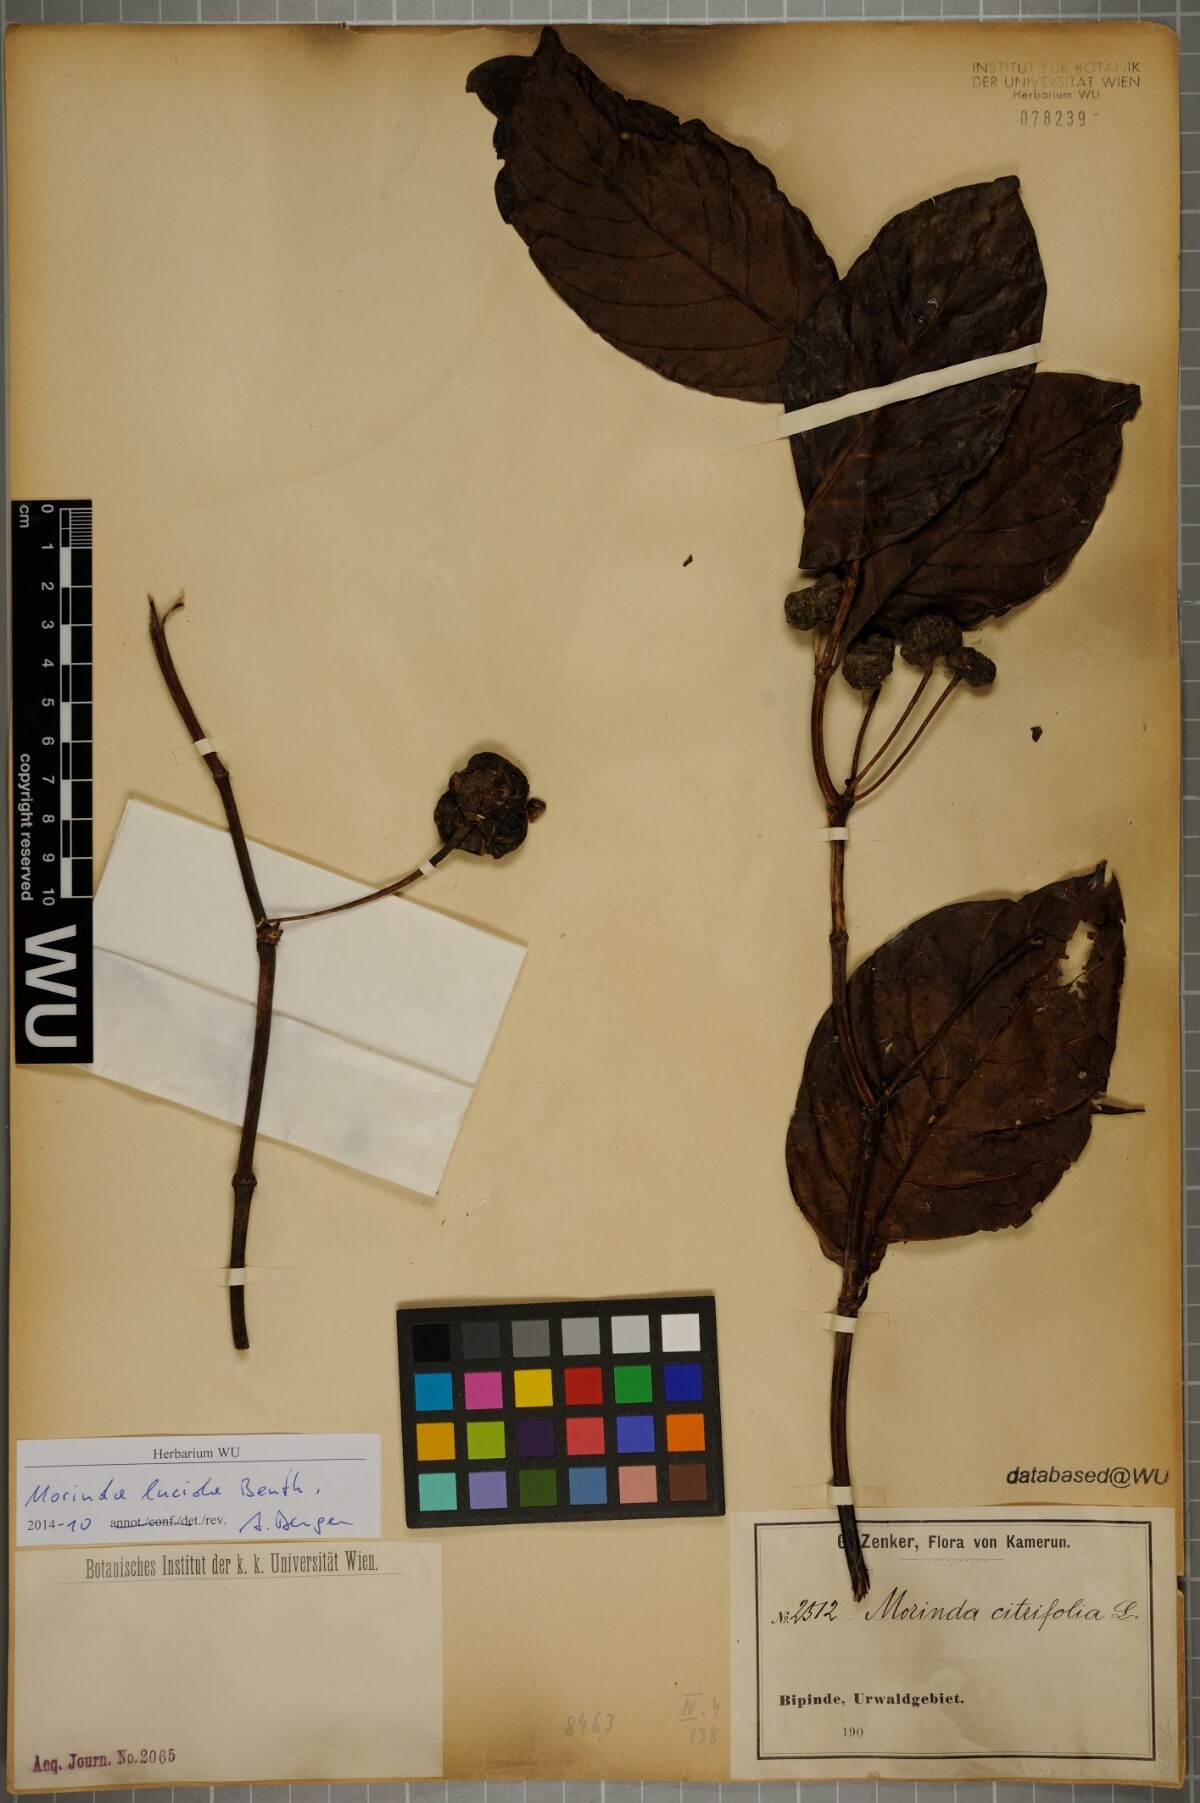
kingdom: Plantae
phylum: Tracheophyta
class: Magnoliopsida
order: Gentianales
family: Rubiaceae
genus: Morinda
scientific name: Morinda lucida
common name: Brimstonetree
